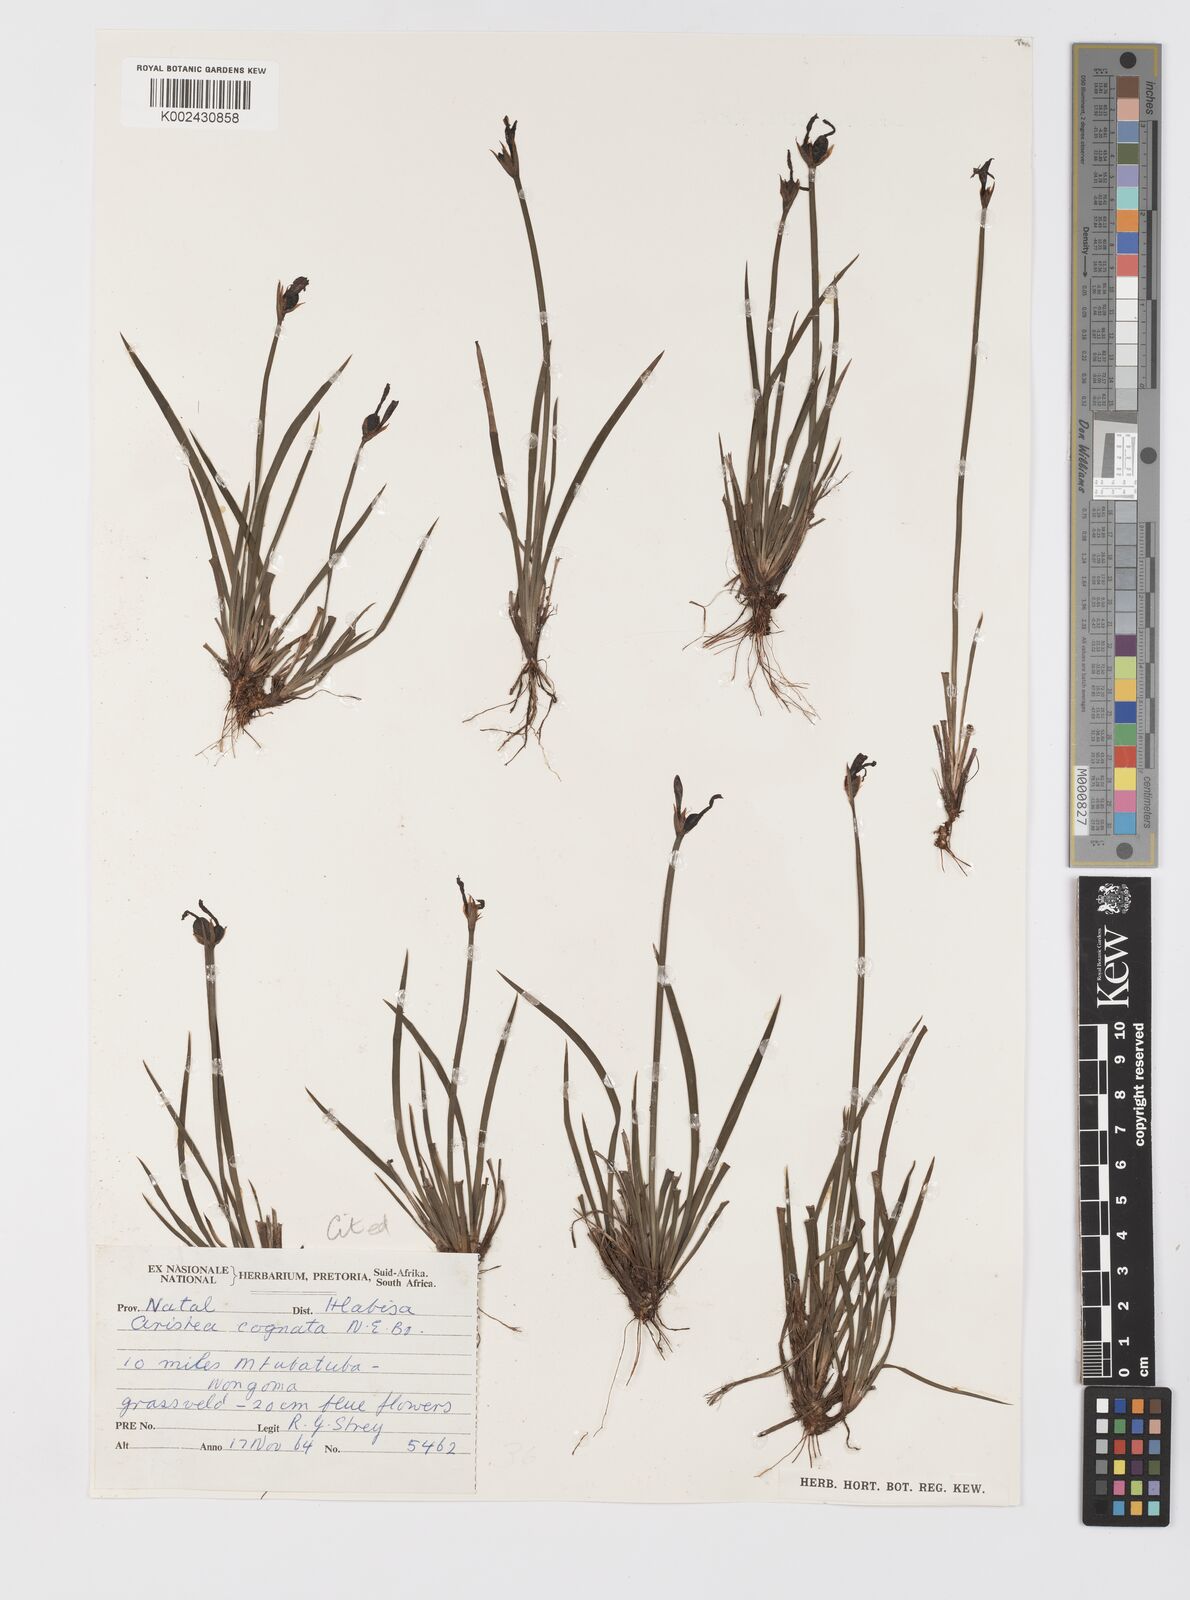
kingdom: Plantae
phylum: Tracheophyta
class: Liliopsida
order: Asparagales
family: Iridaceae
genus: Aristea
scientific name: Aristea abyssinica
